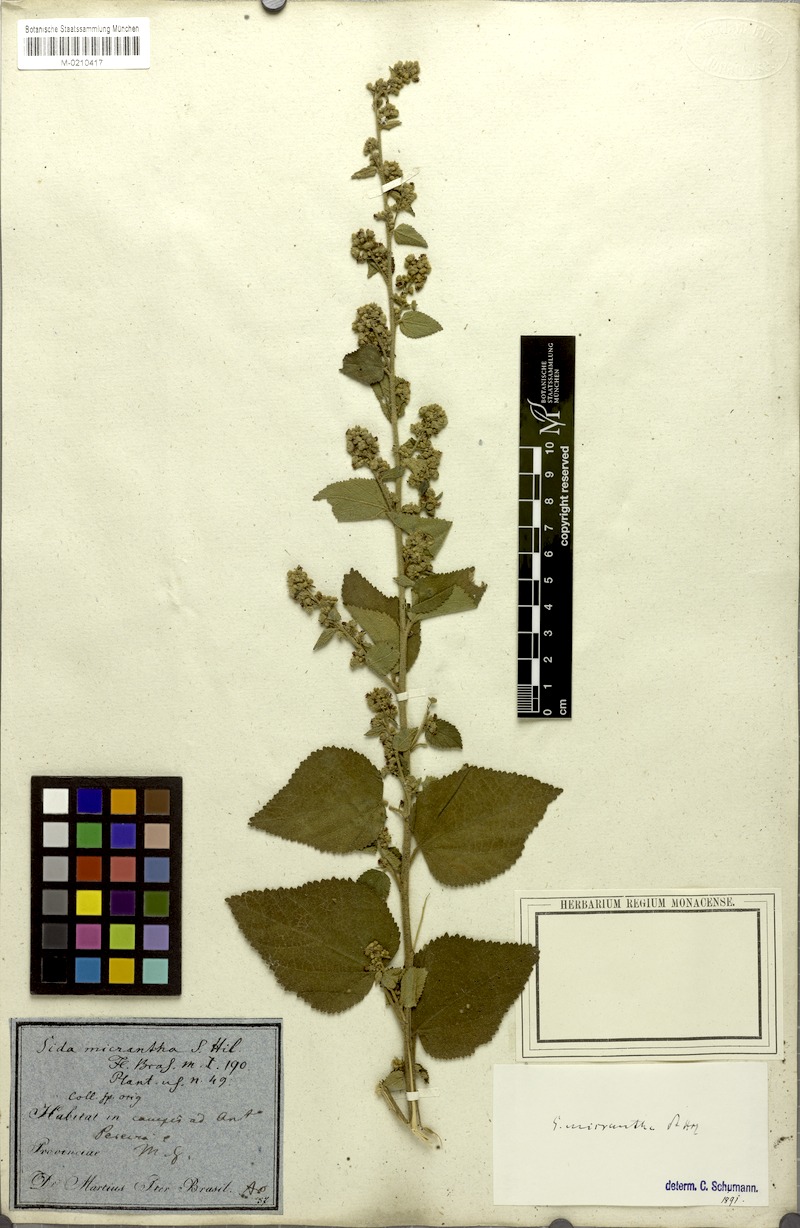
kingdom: Plantae
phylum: Tracheophyta
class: Magnoliopsida
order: Malvales
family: Malvaceae
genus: Sidastrum
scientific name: Sidastrum micranthum
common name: Dainty sandmallow
